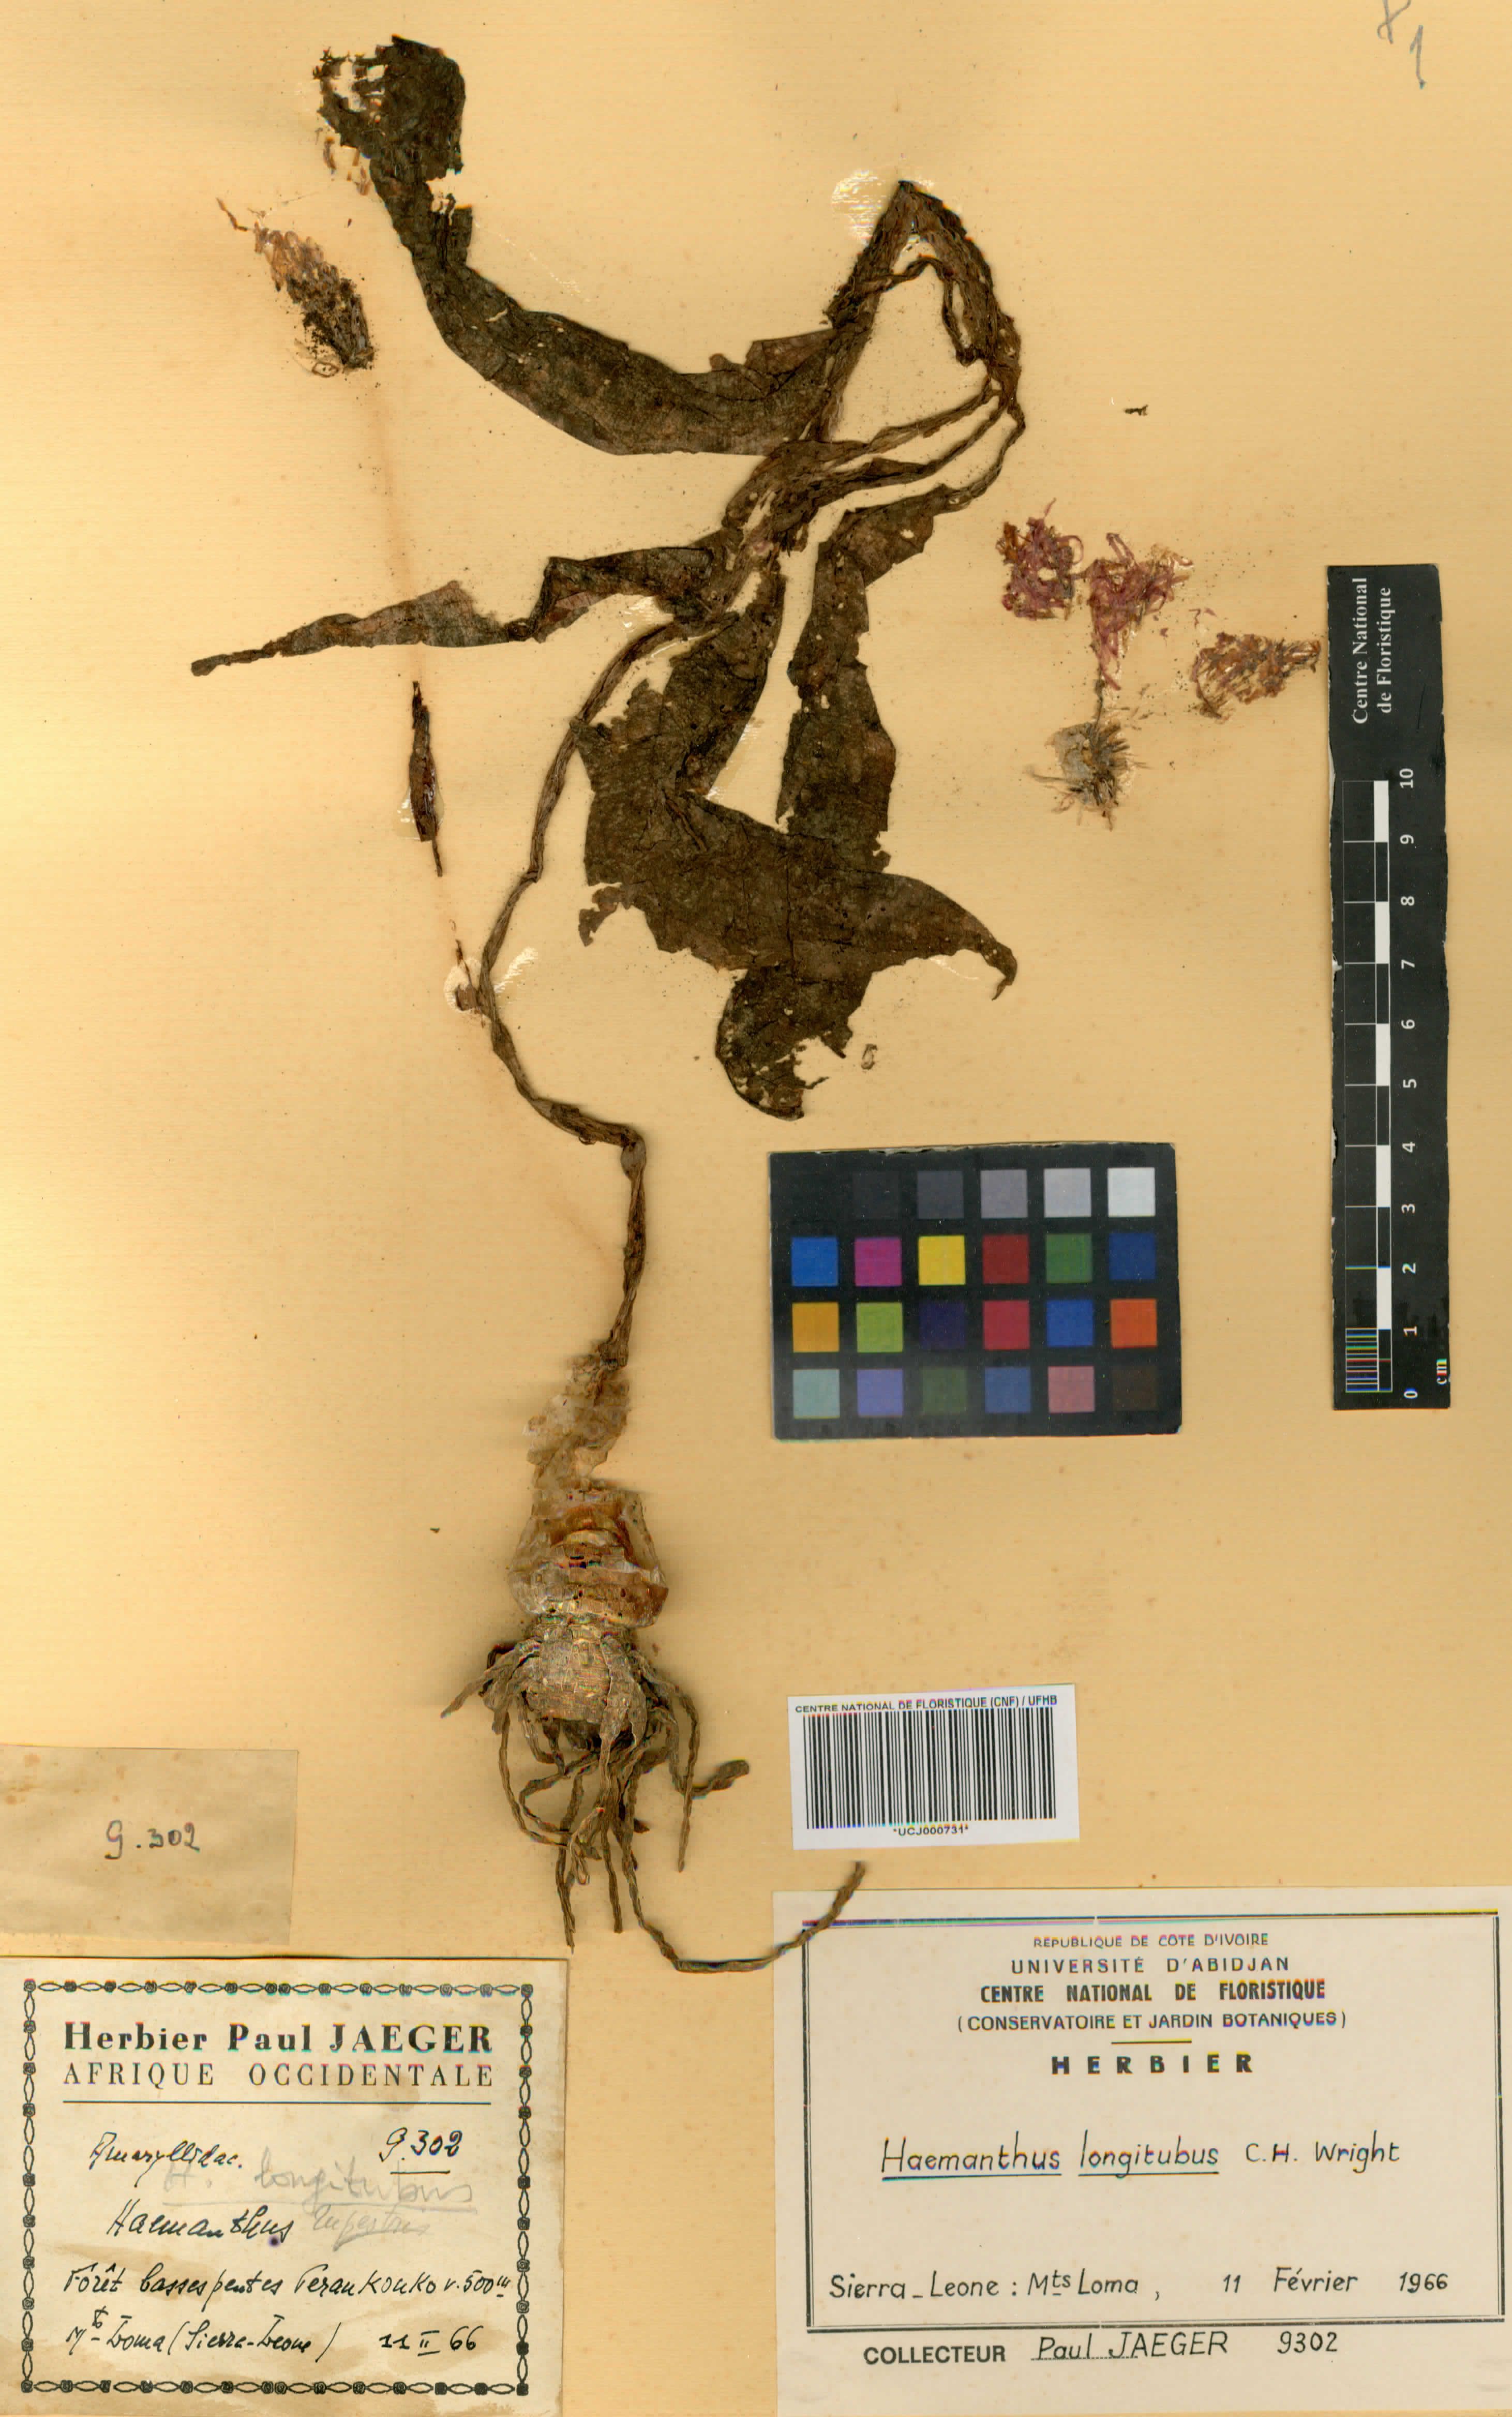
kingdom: Plantae
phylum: Tracheophyta
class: Liliopsida
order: Asparagales
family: Amaryllidaceae
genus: Scadoxus
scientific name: Scadoxus multiflorus
